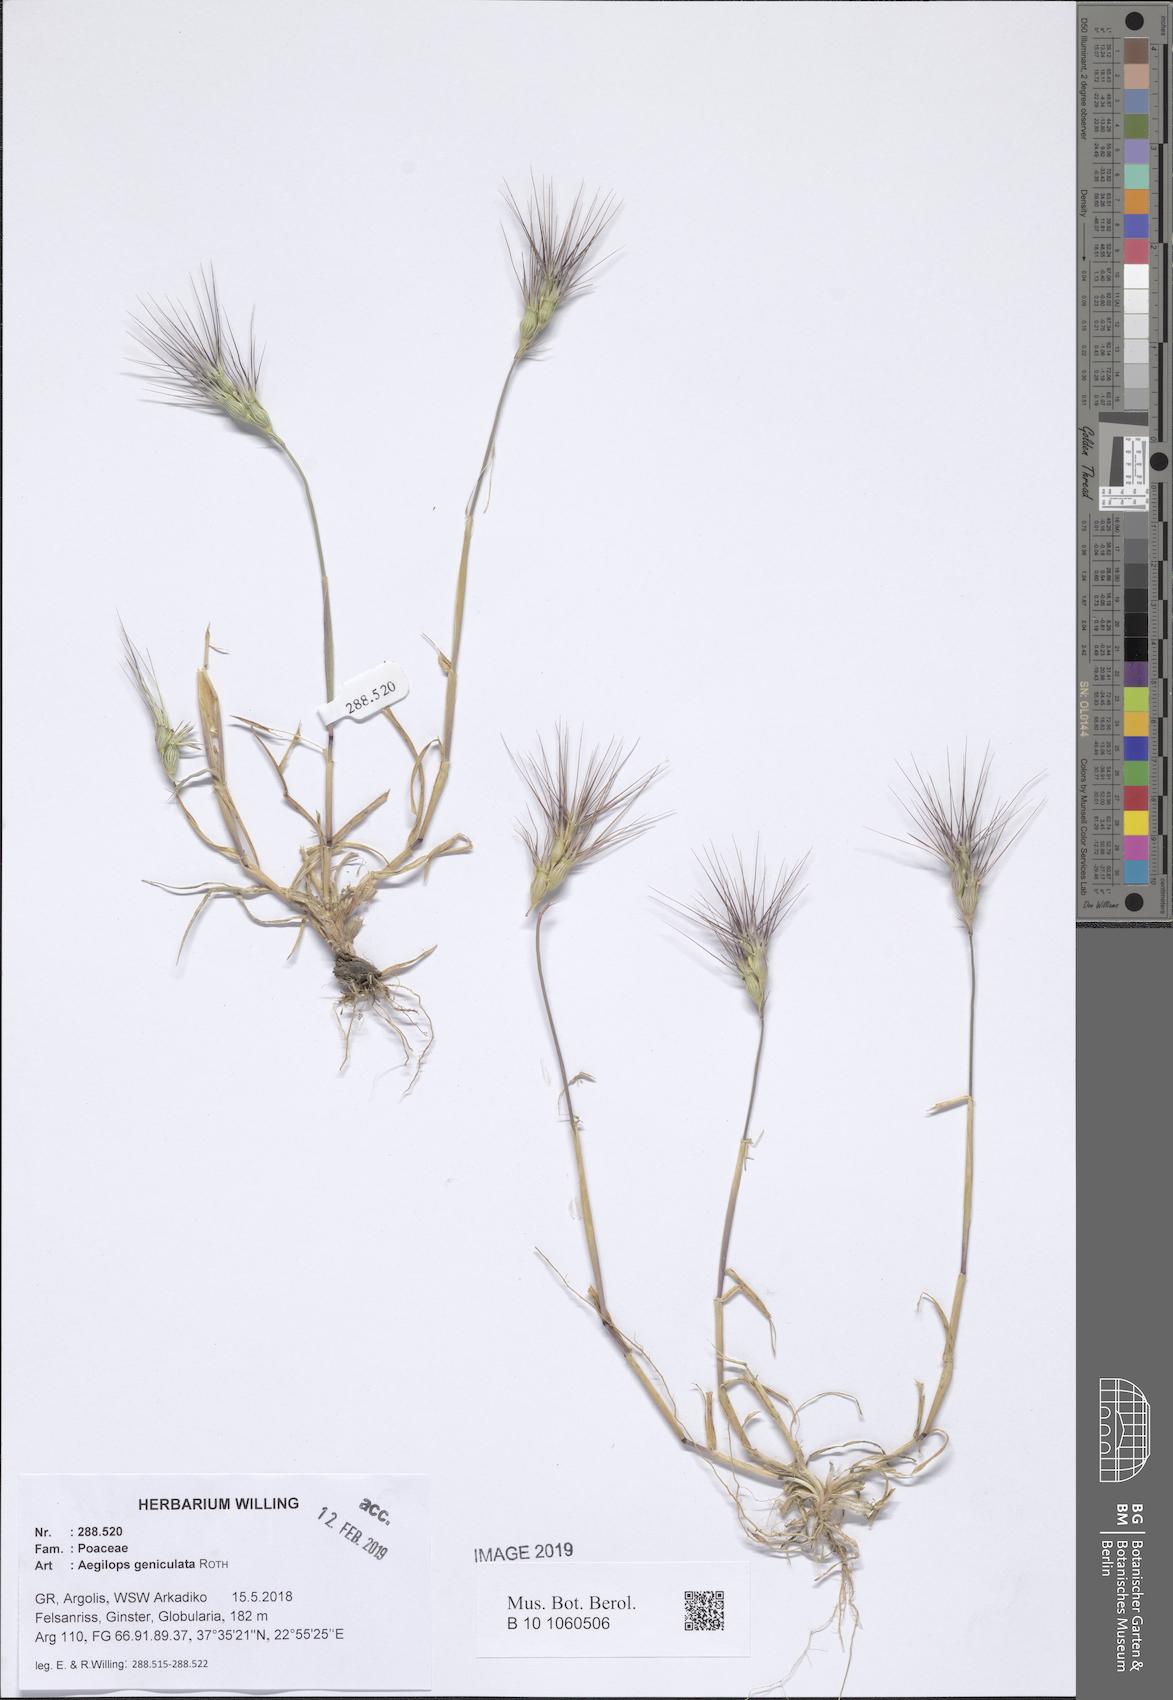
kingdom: Plantae
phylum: Tracheophyta
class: Liliopsida
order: Poales
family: Poaceae
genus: Aegilops
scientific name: Aegilops geniculata
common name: Ovate goat grass
